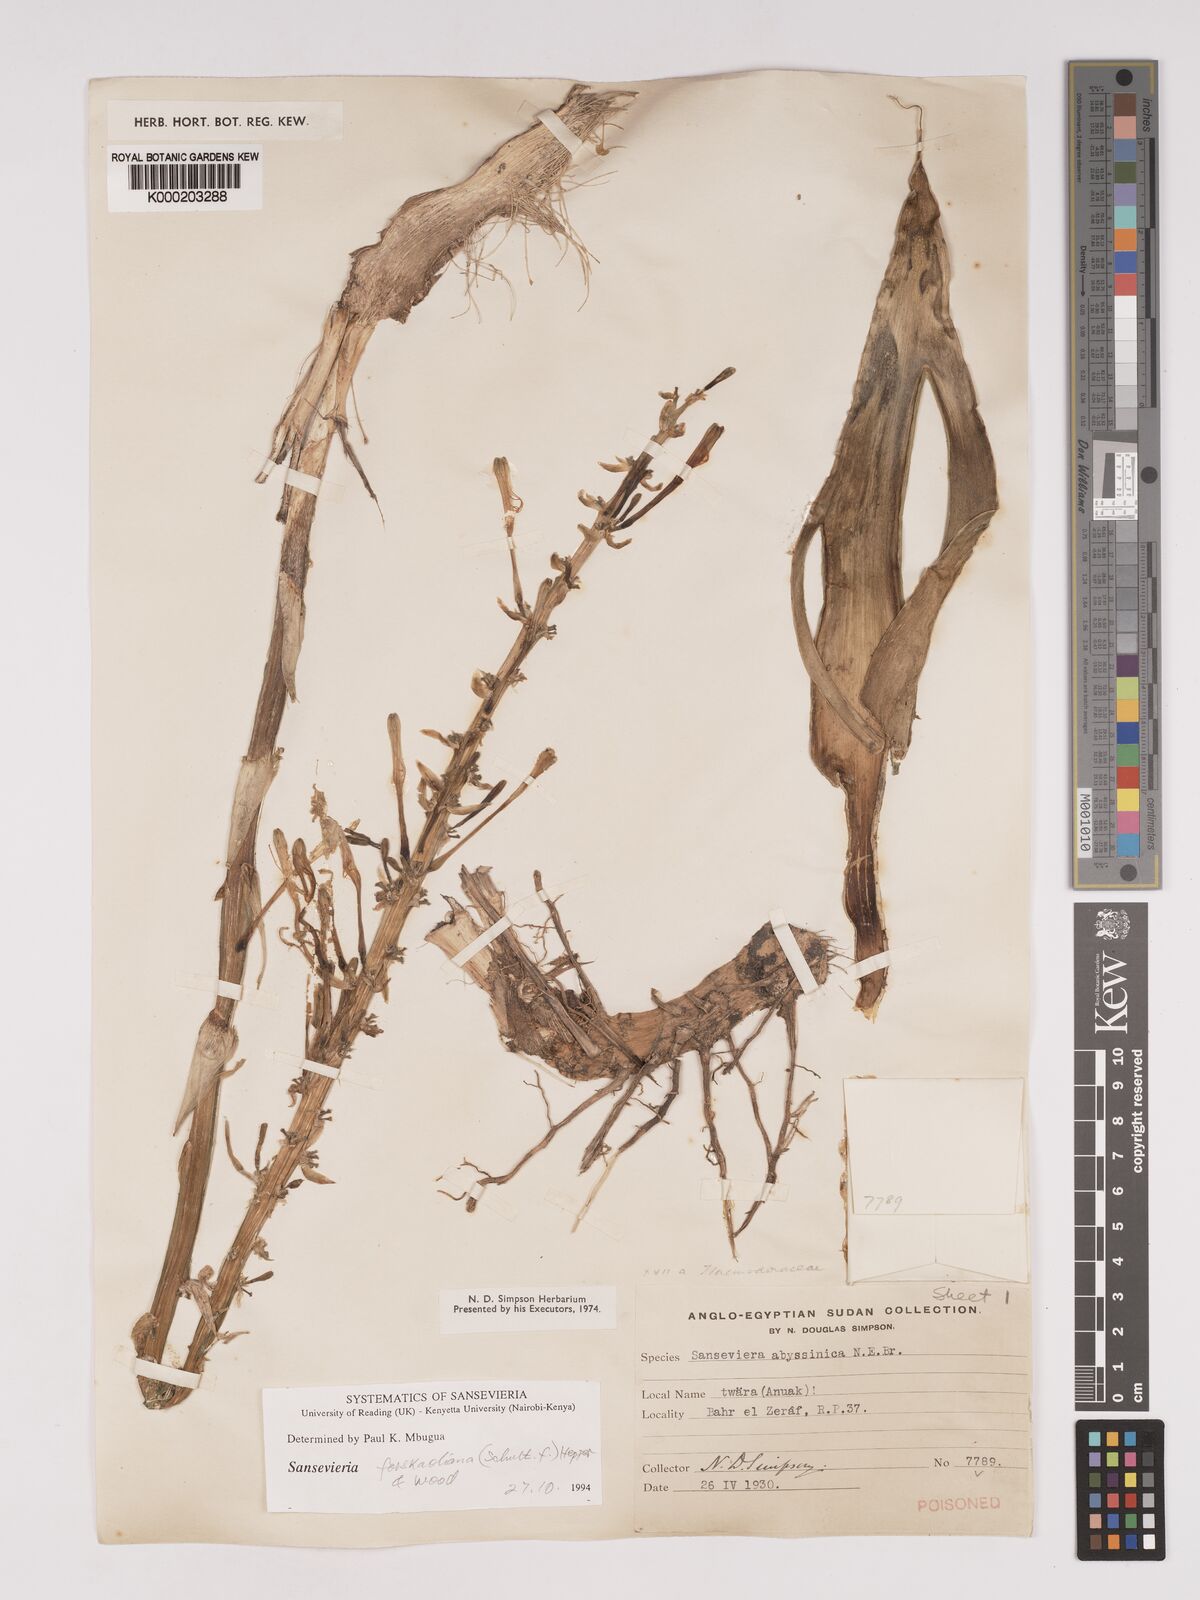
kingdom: Plantae
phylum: Tracheophyta
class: Liliopsida
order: Asparagales
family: Asparagaceae
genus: Dracaena
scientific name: Dracaena forskaliana
